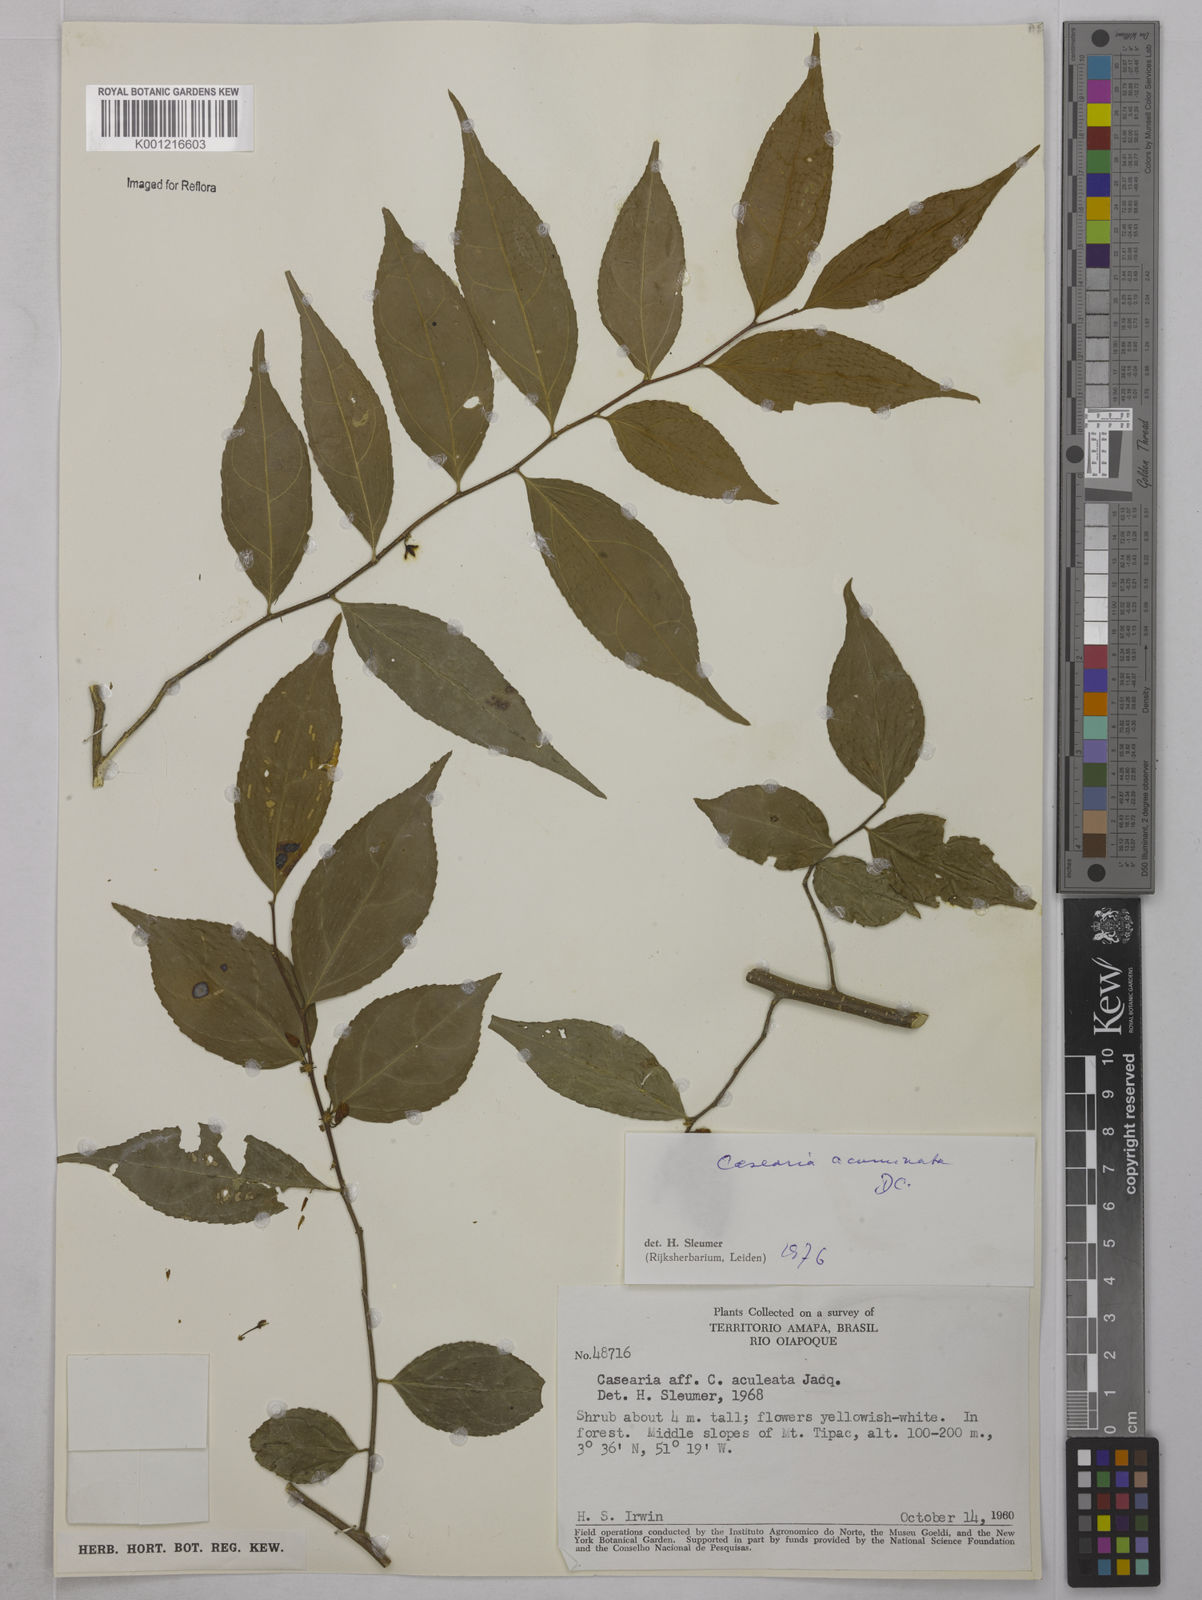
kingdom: Plantae
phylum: Tracheophyta
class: Magnoliopsida
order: Malpighiales
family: Salicaceae
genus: Casearia
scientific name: Casearia acuminata
